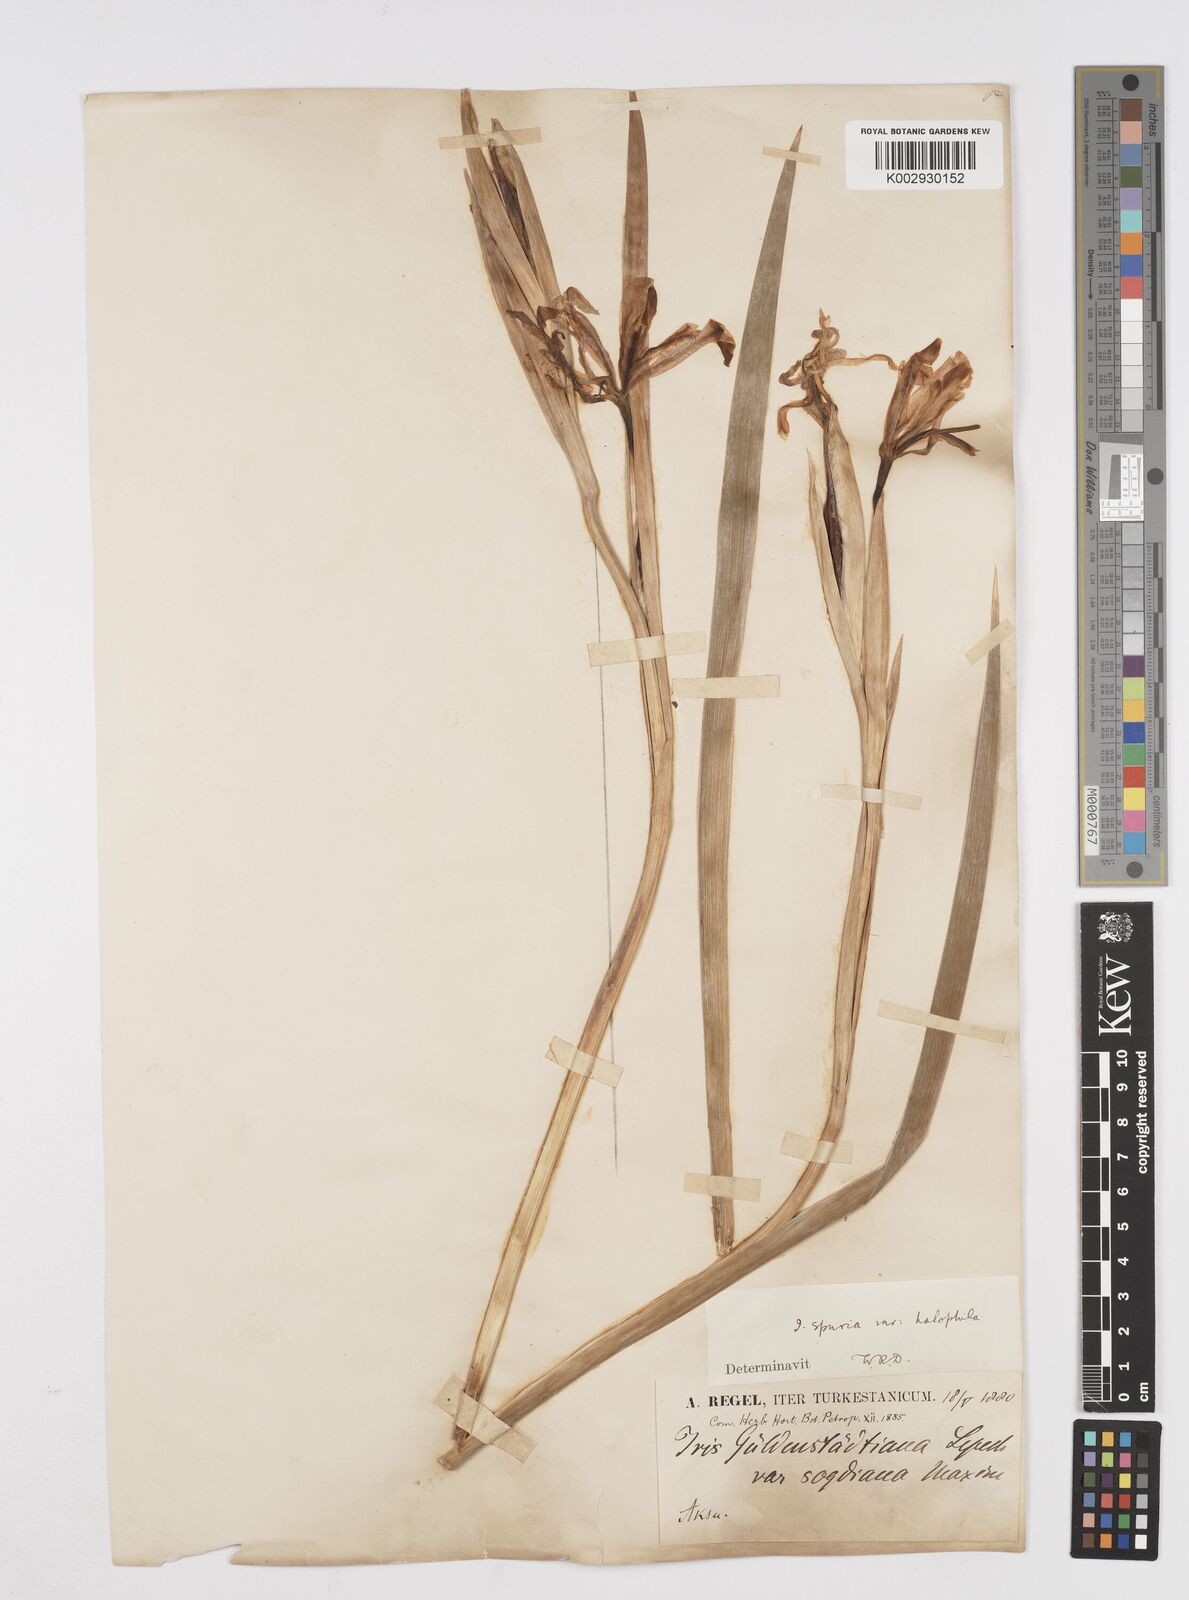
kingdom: Plantae
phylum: Tracheophyta
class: Liliopsida
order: Asparagales
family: Iridaceae
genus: Iris
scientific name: Iris halophila
